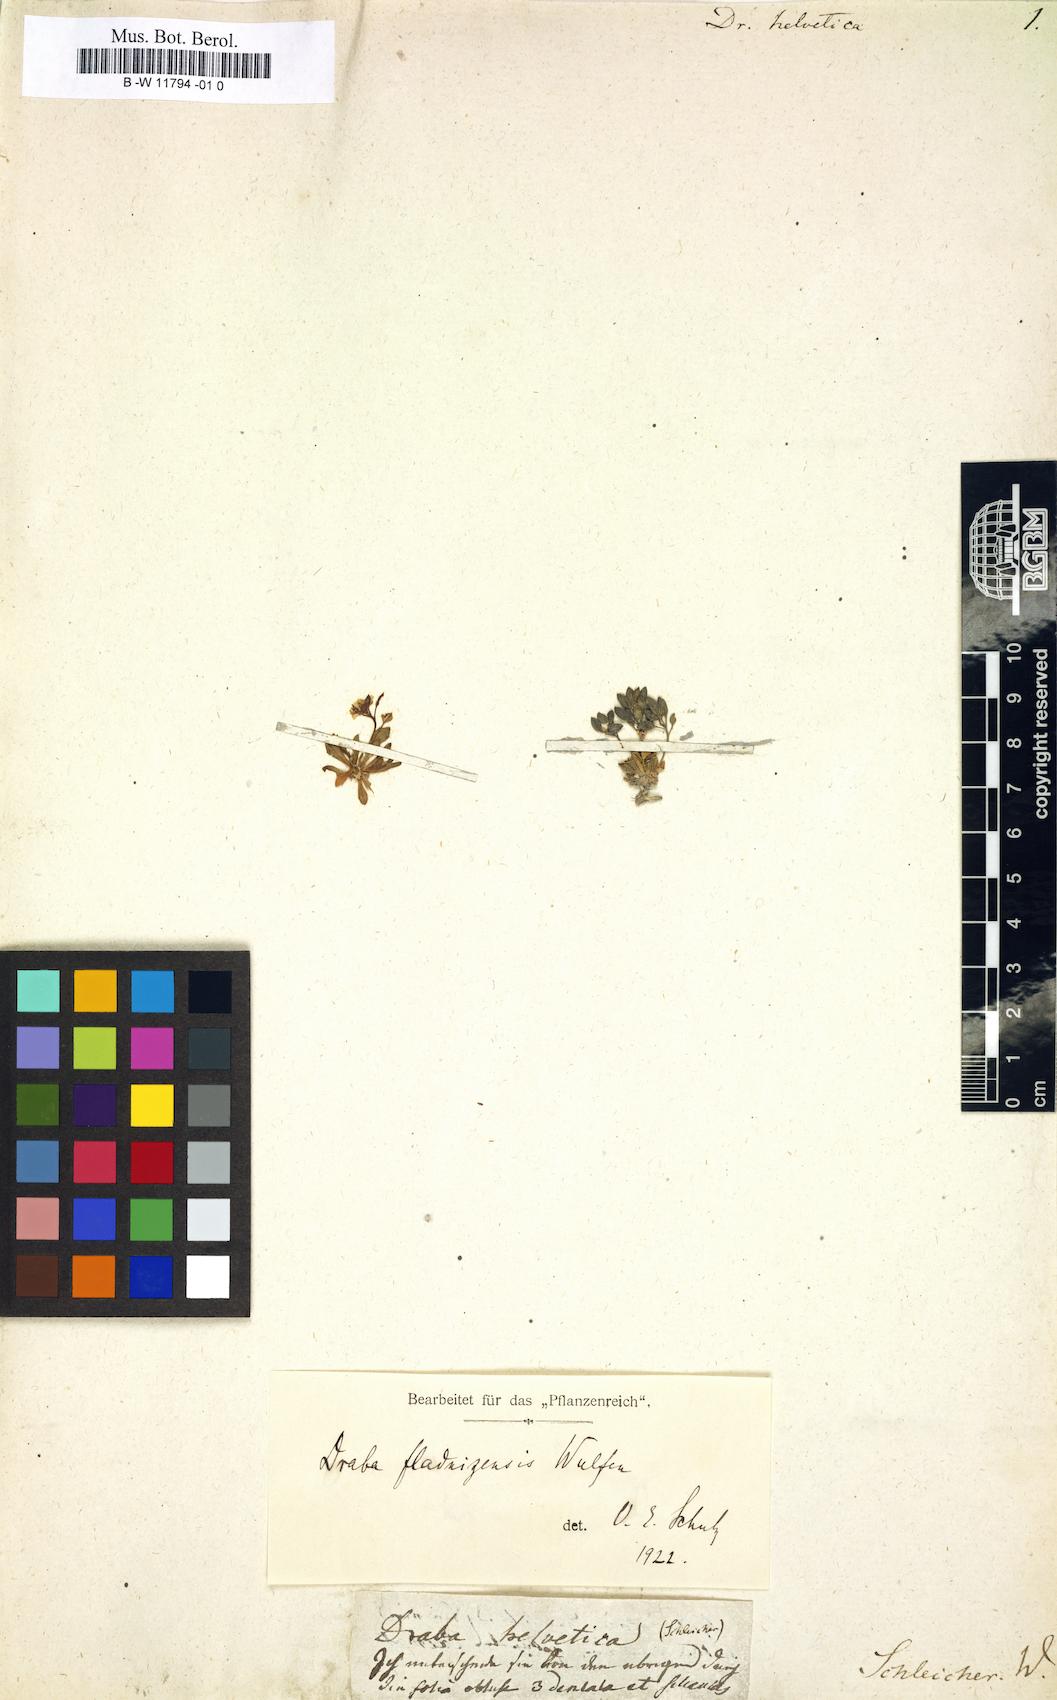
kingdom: Plantae
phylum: Tracheophyta
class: Magnoliopsida
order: Brassicales
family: Brassicaceae
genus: Draba
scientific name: Draba fladnizensis
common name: Austrian draba
